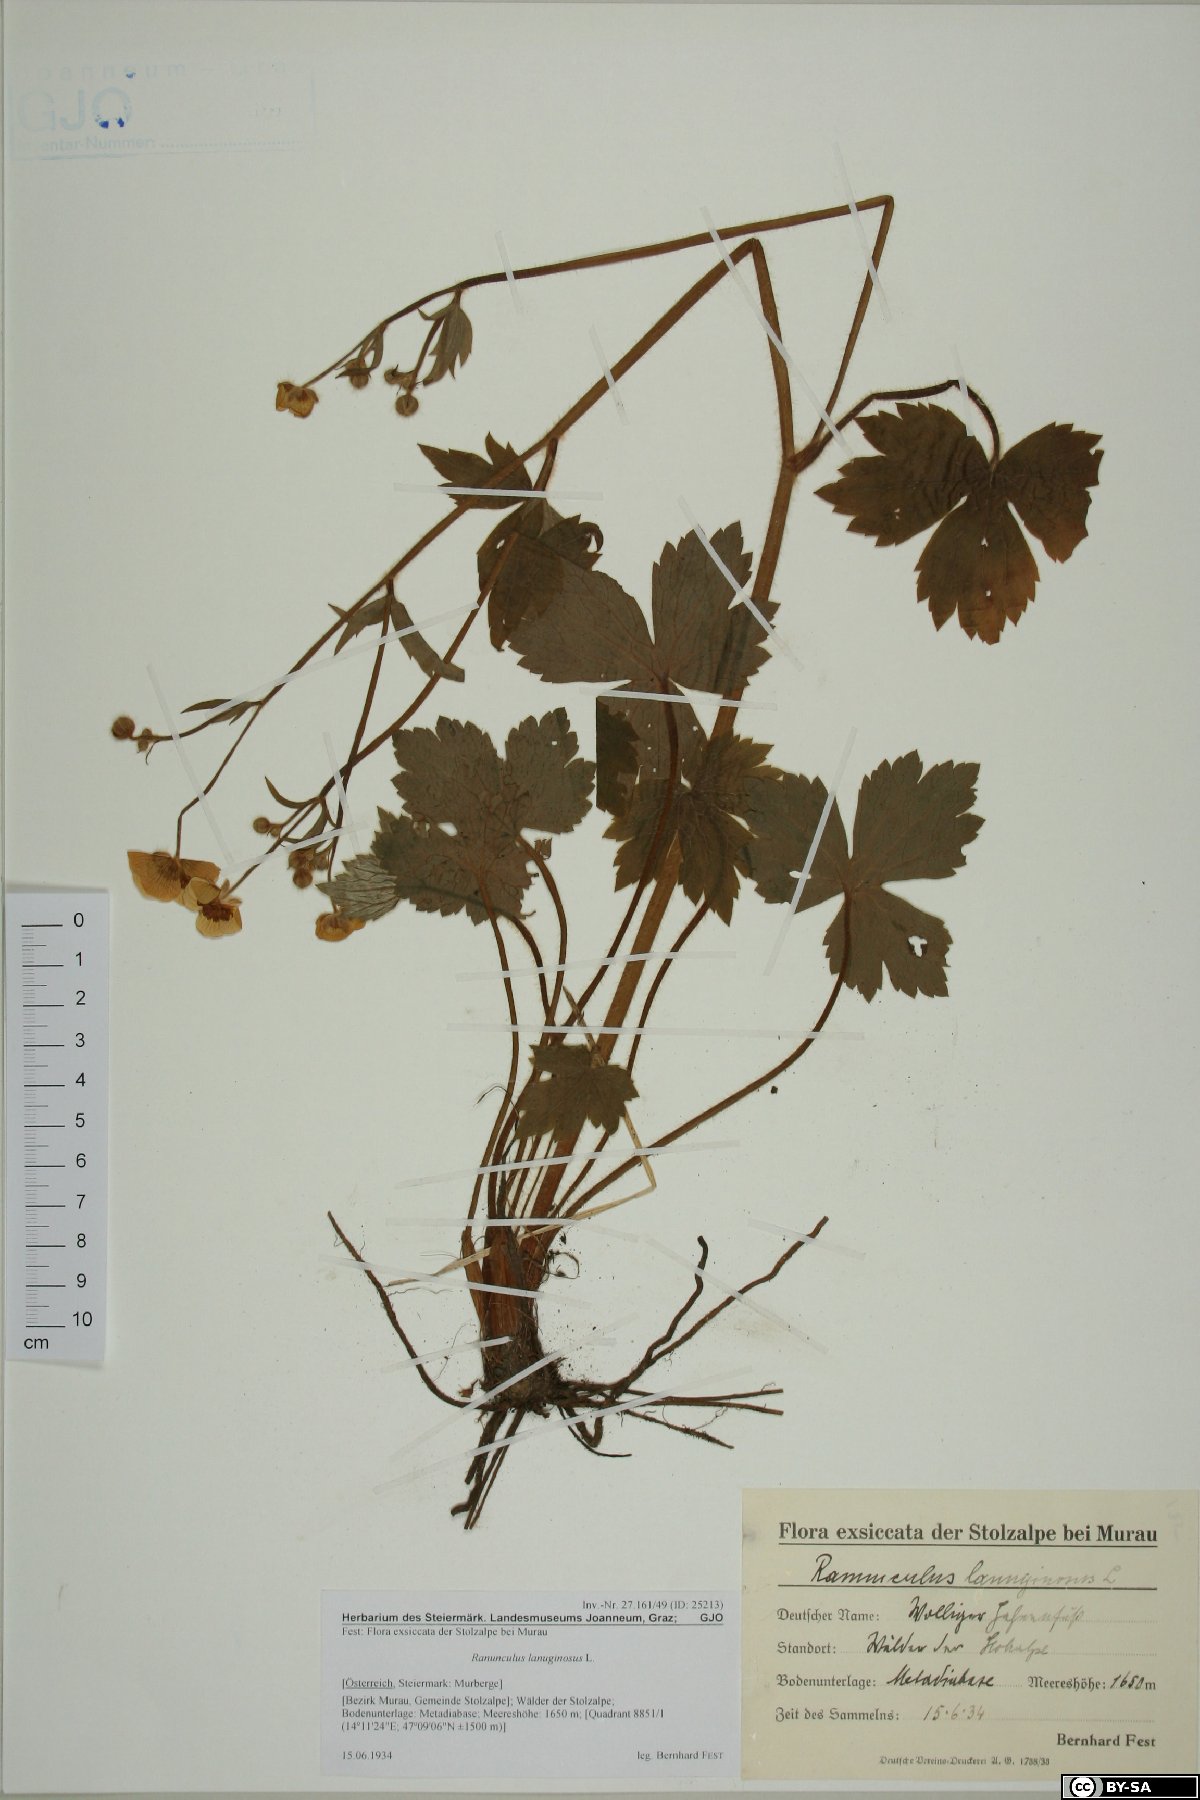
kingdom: Plantae
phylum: Tracheophyta
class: Magnoliopsida
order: Ranunculales
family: Ranunculaceae
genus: Ranunculus
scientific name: Ranunculus lanuginosus
